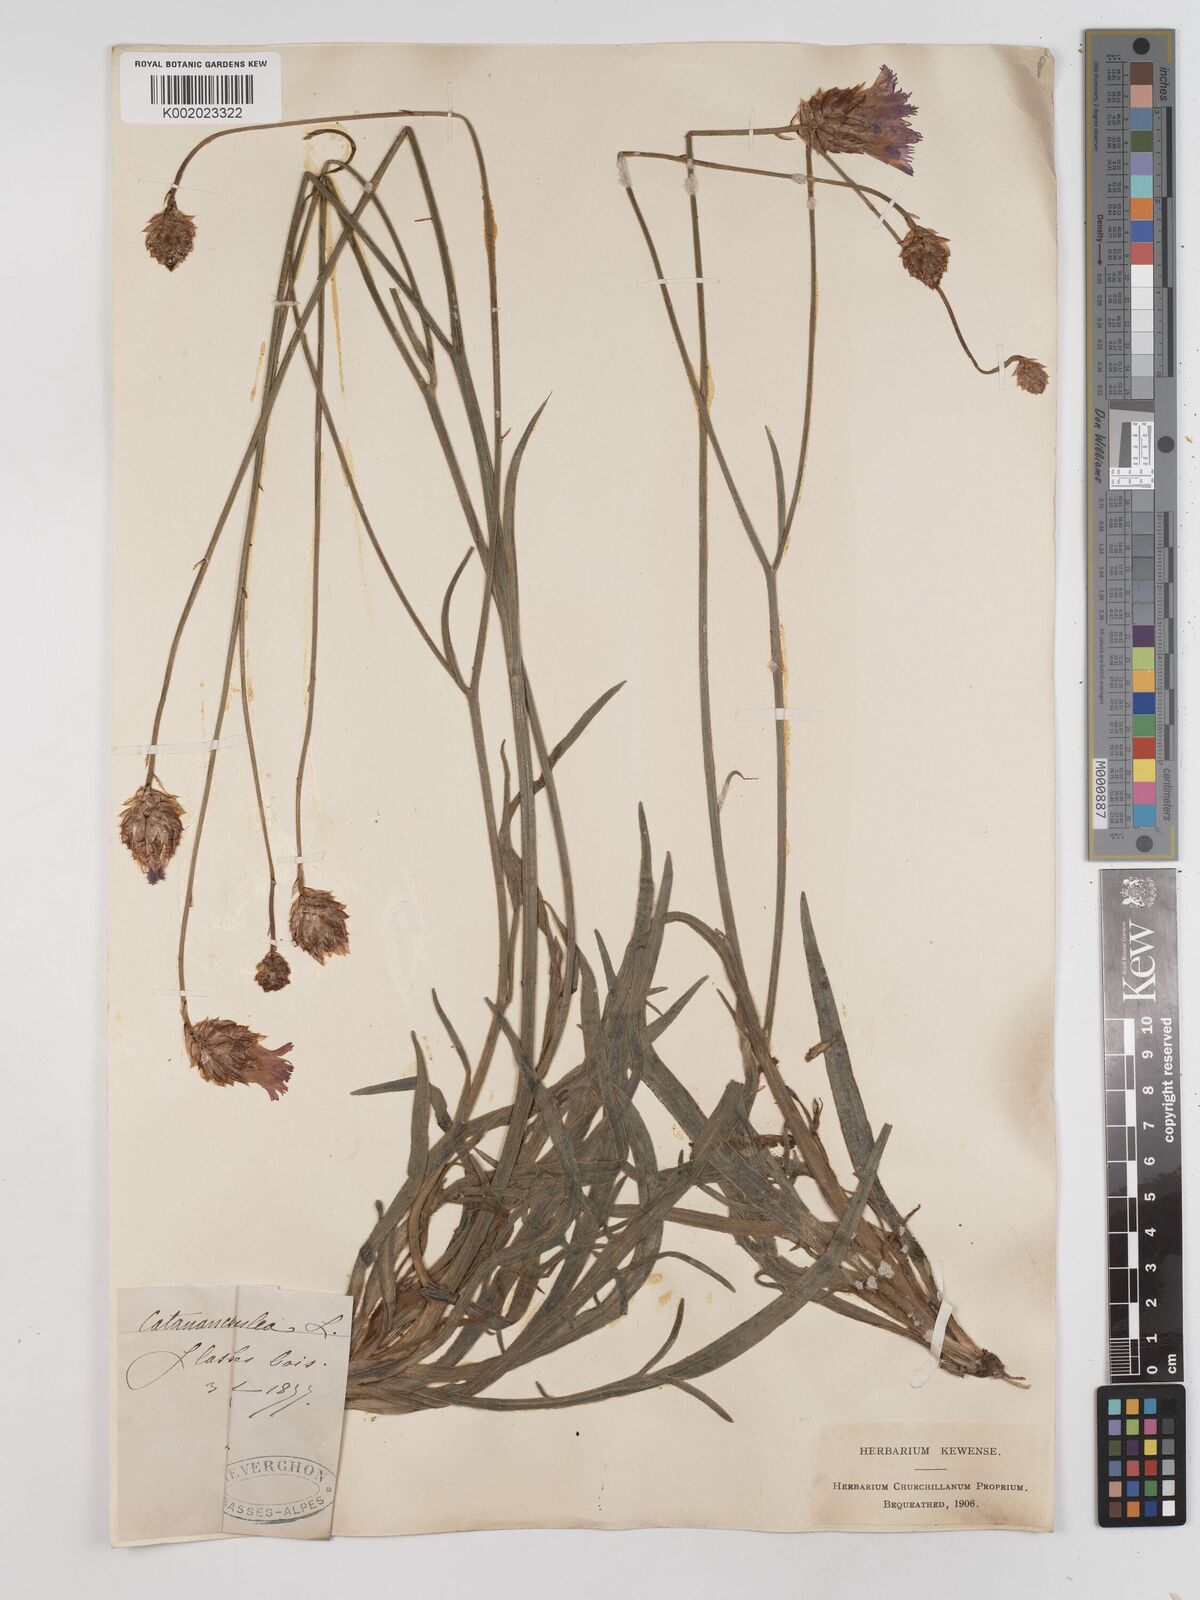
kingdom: Plantae
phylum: Tracheophyta
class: Magnoliopsida
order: Asterales
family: Asteraceae
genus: Catananche
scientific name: Catananche caerulea
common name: Blue cupidone
